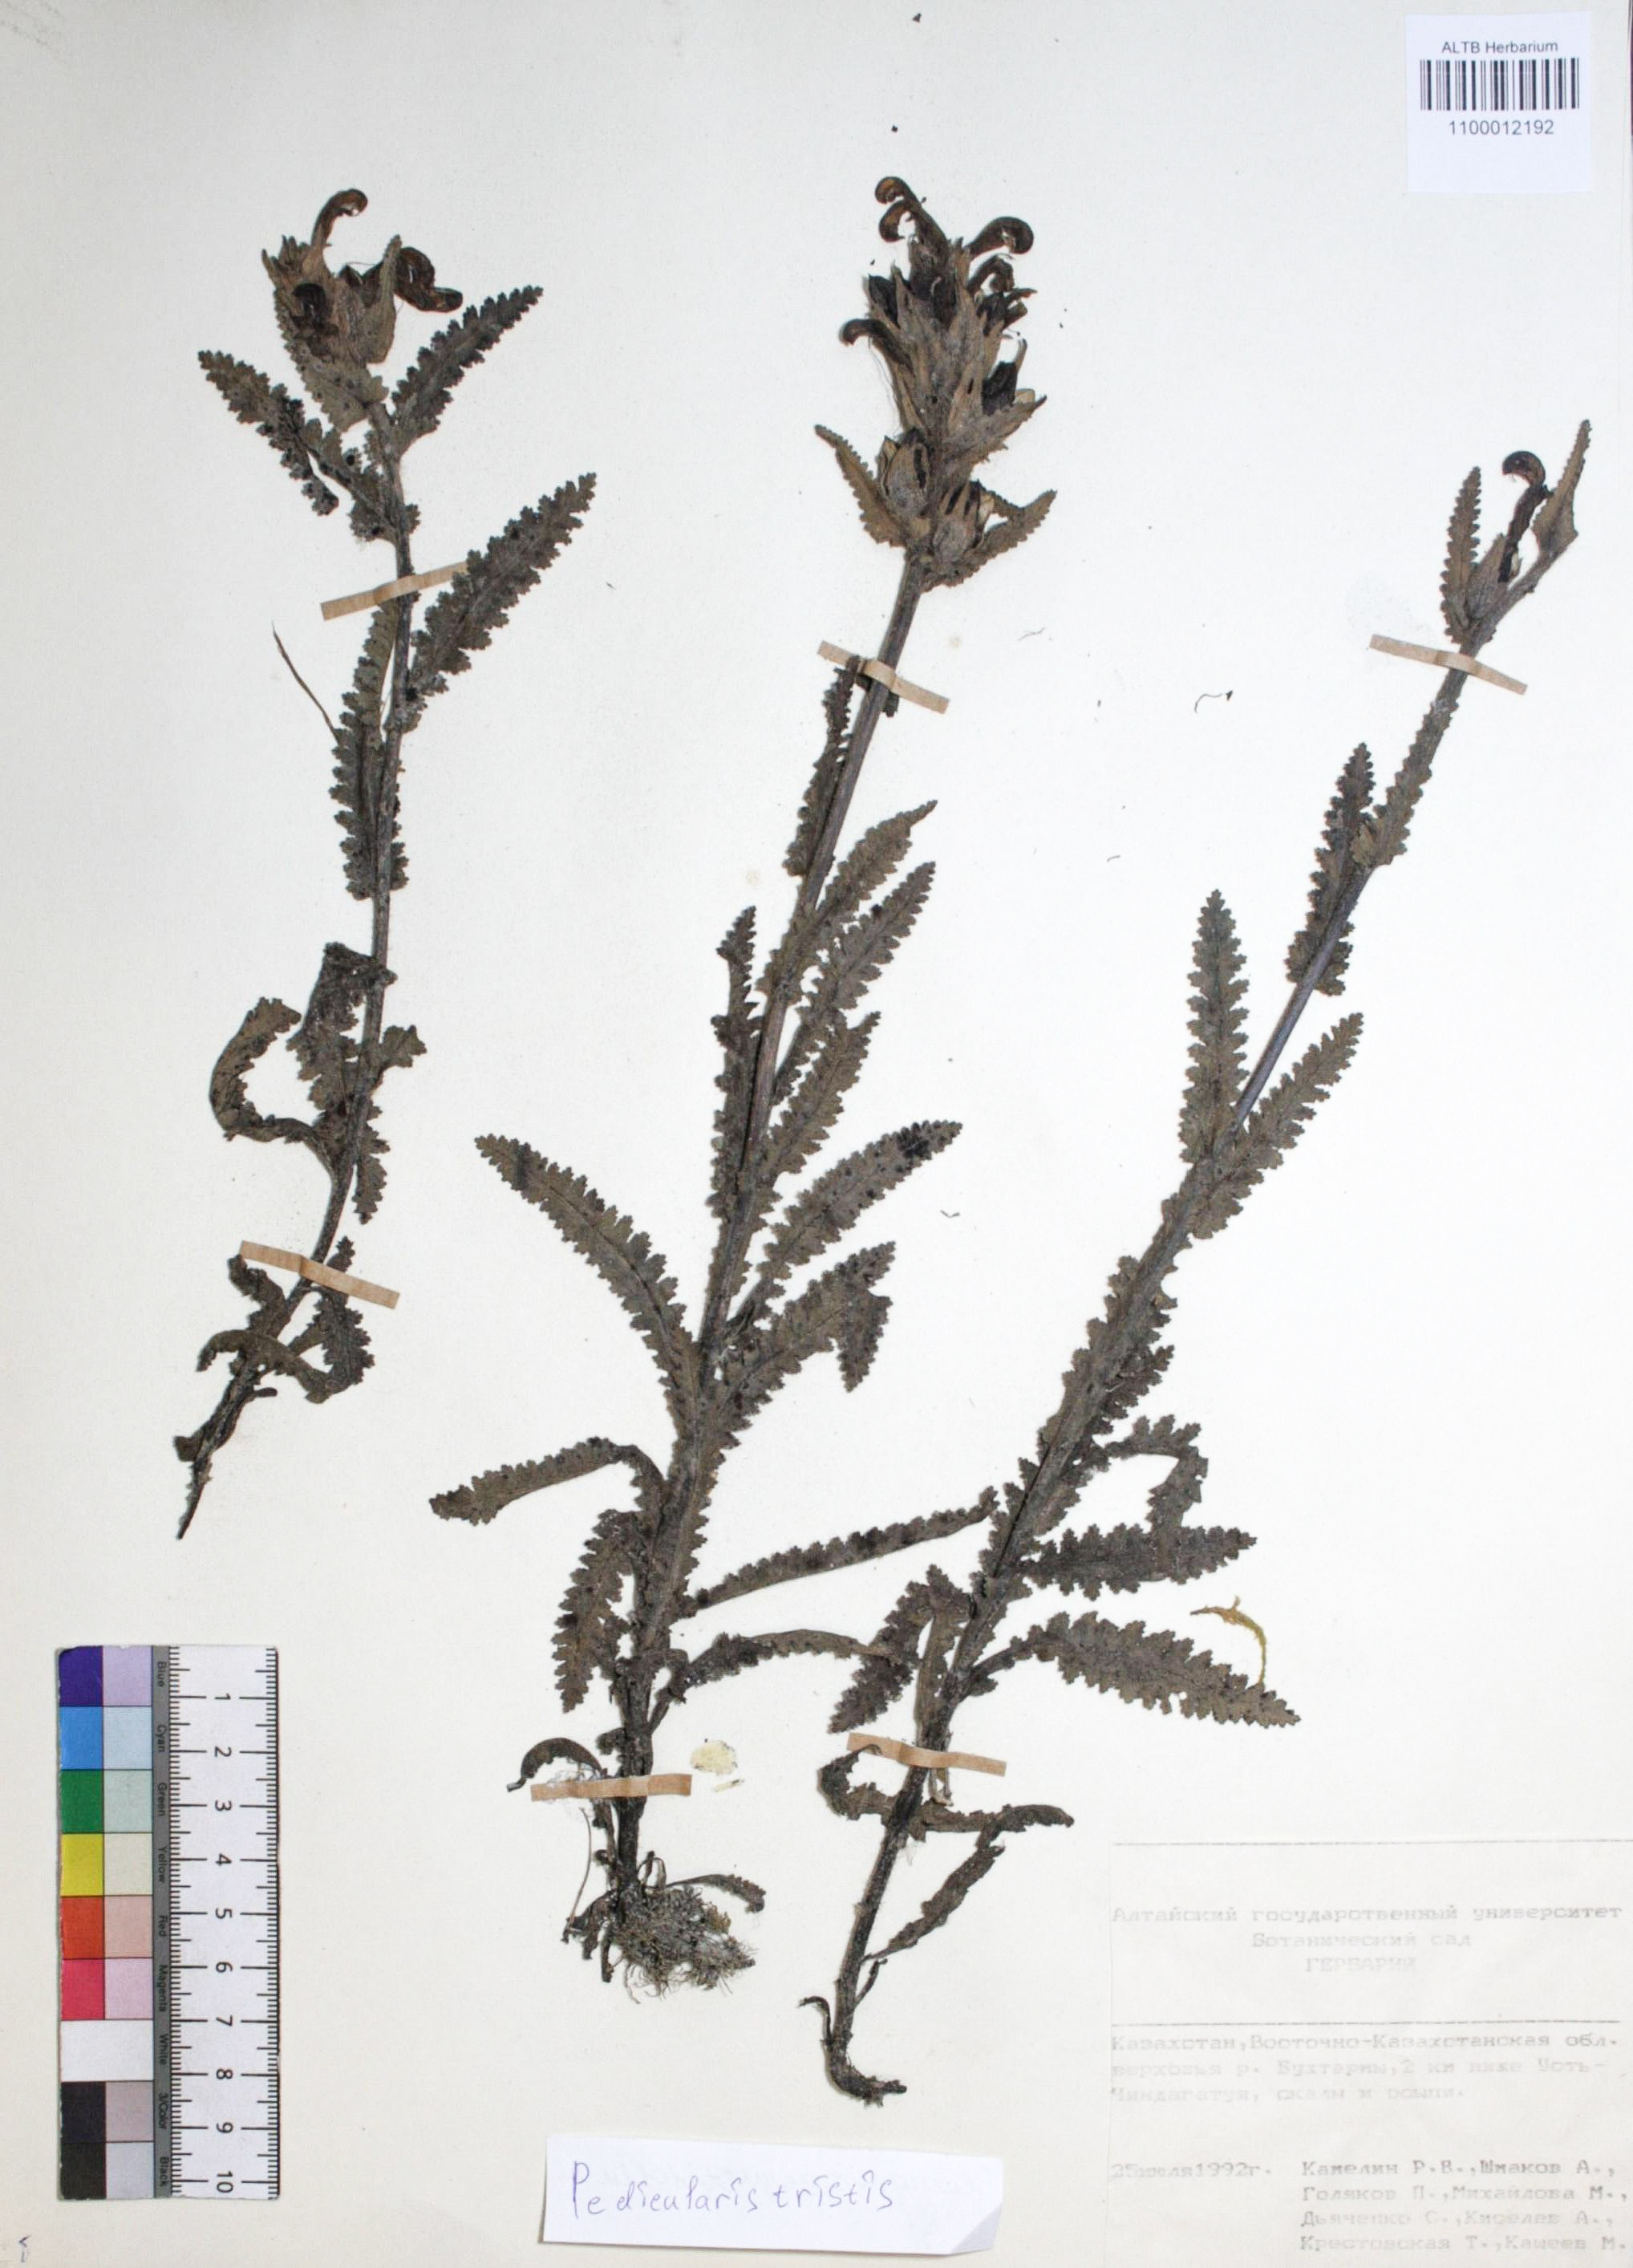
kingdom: Plantae
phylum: Tracheophyta
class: Magnoliopsida
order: Lamiales
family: Orobanchaceae
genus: Pedicularis
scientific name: Pedicularis tristis
